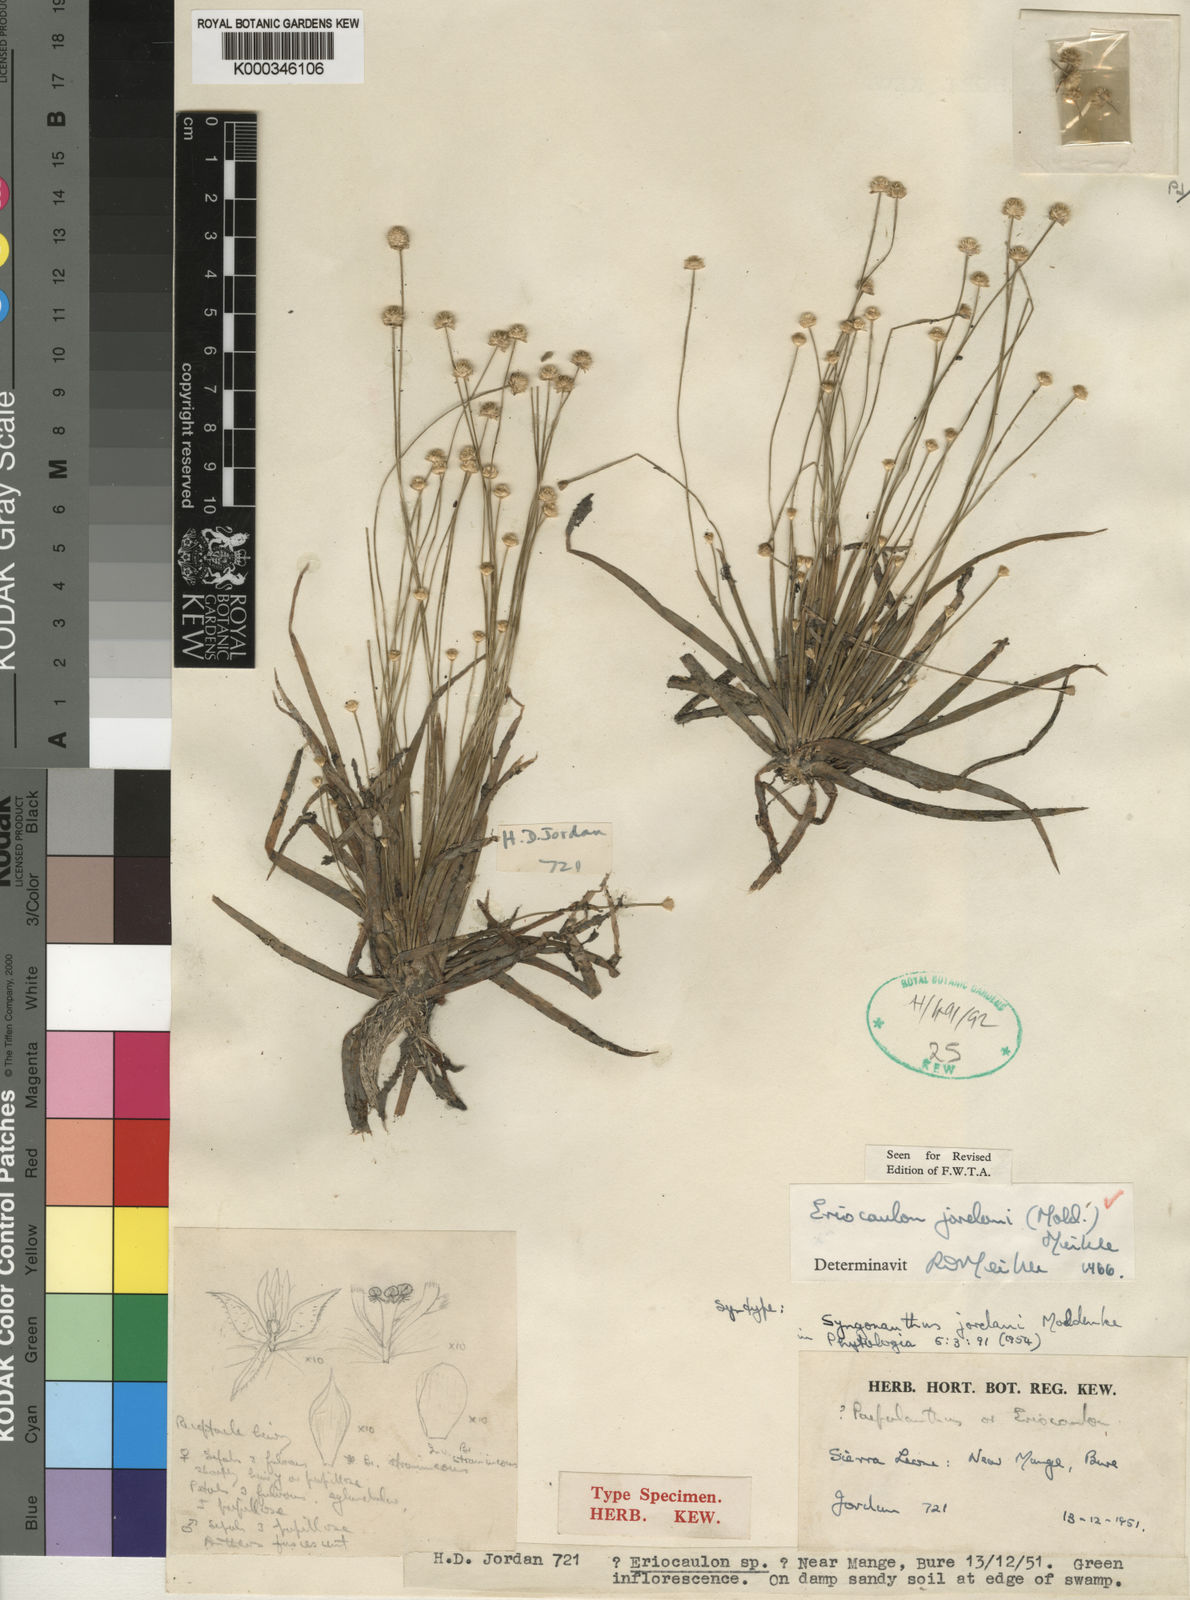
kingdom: Plantae
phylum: Tracheophyta
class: Liliopsida
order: Poales
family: Eriocaulaceae
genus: Eriocaulon
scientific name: Eriocaulon jordanii
